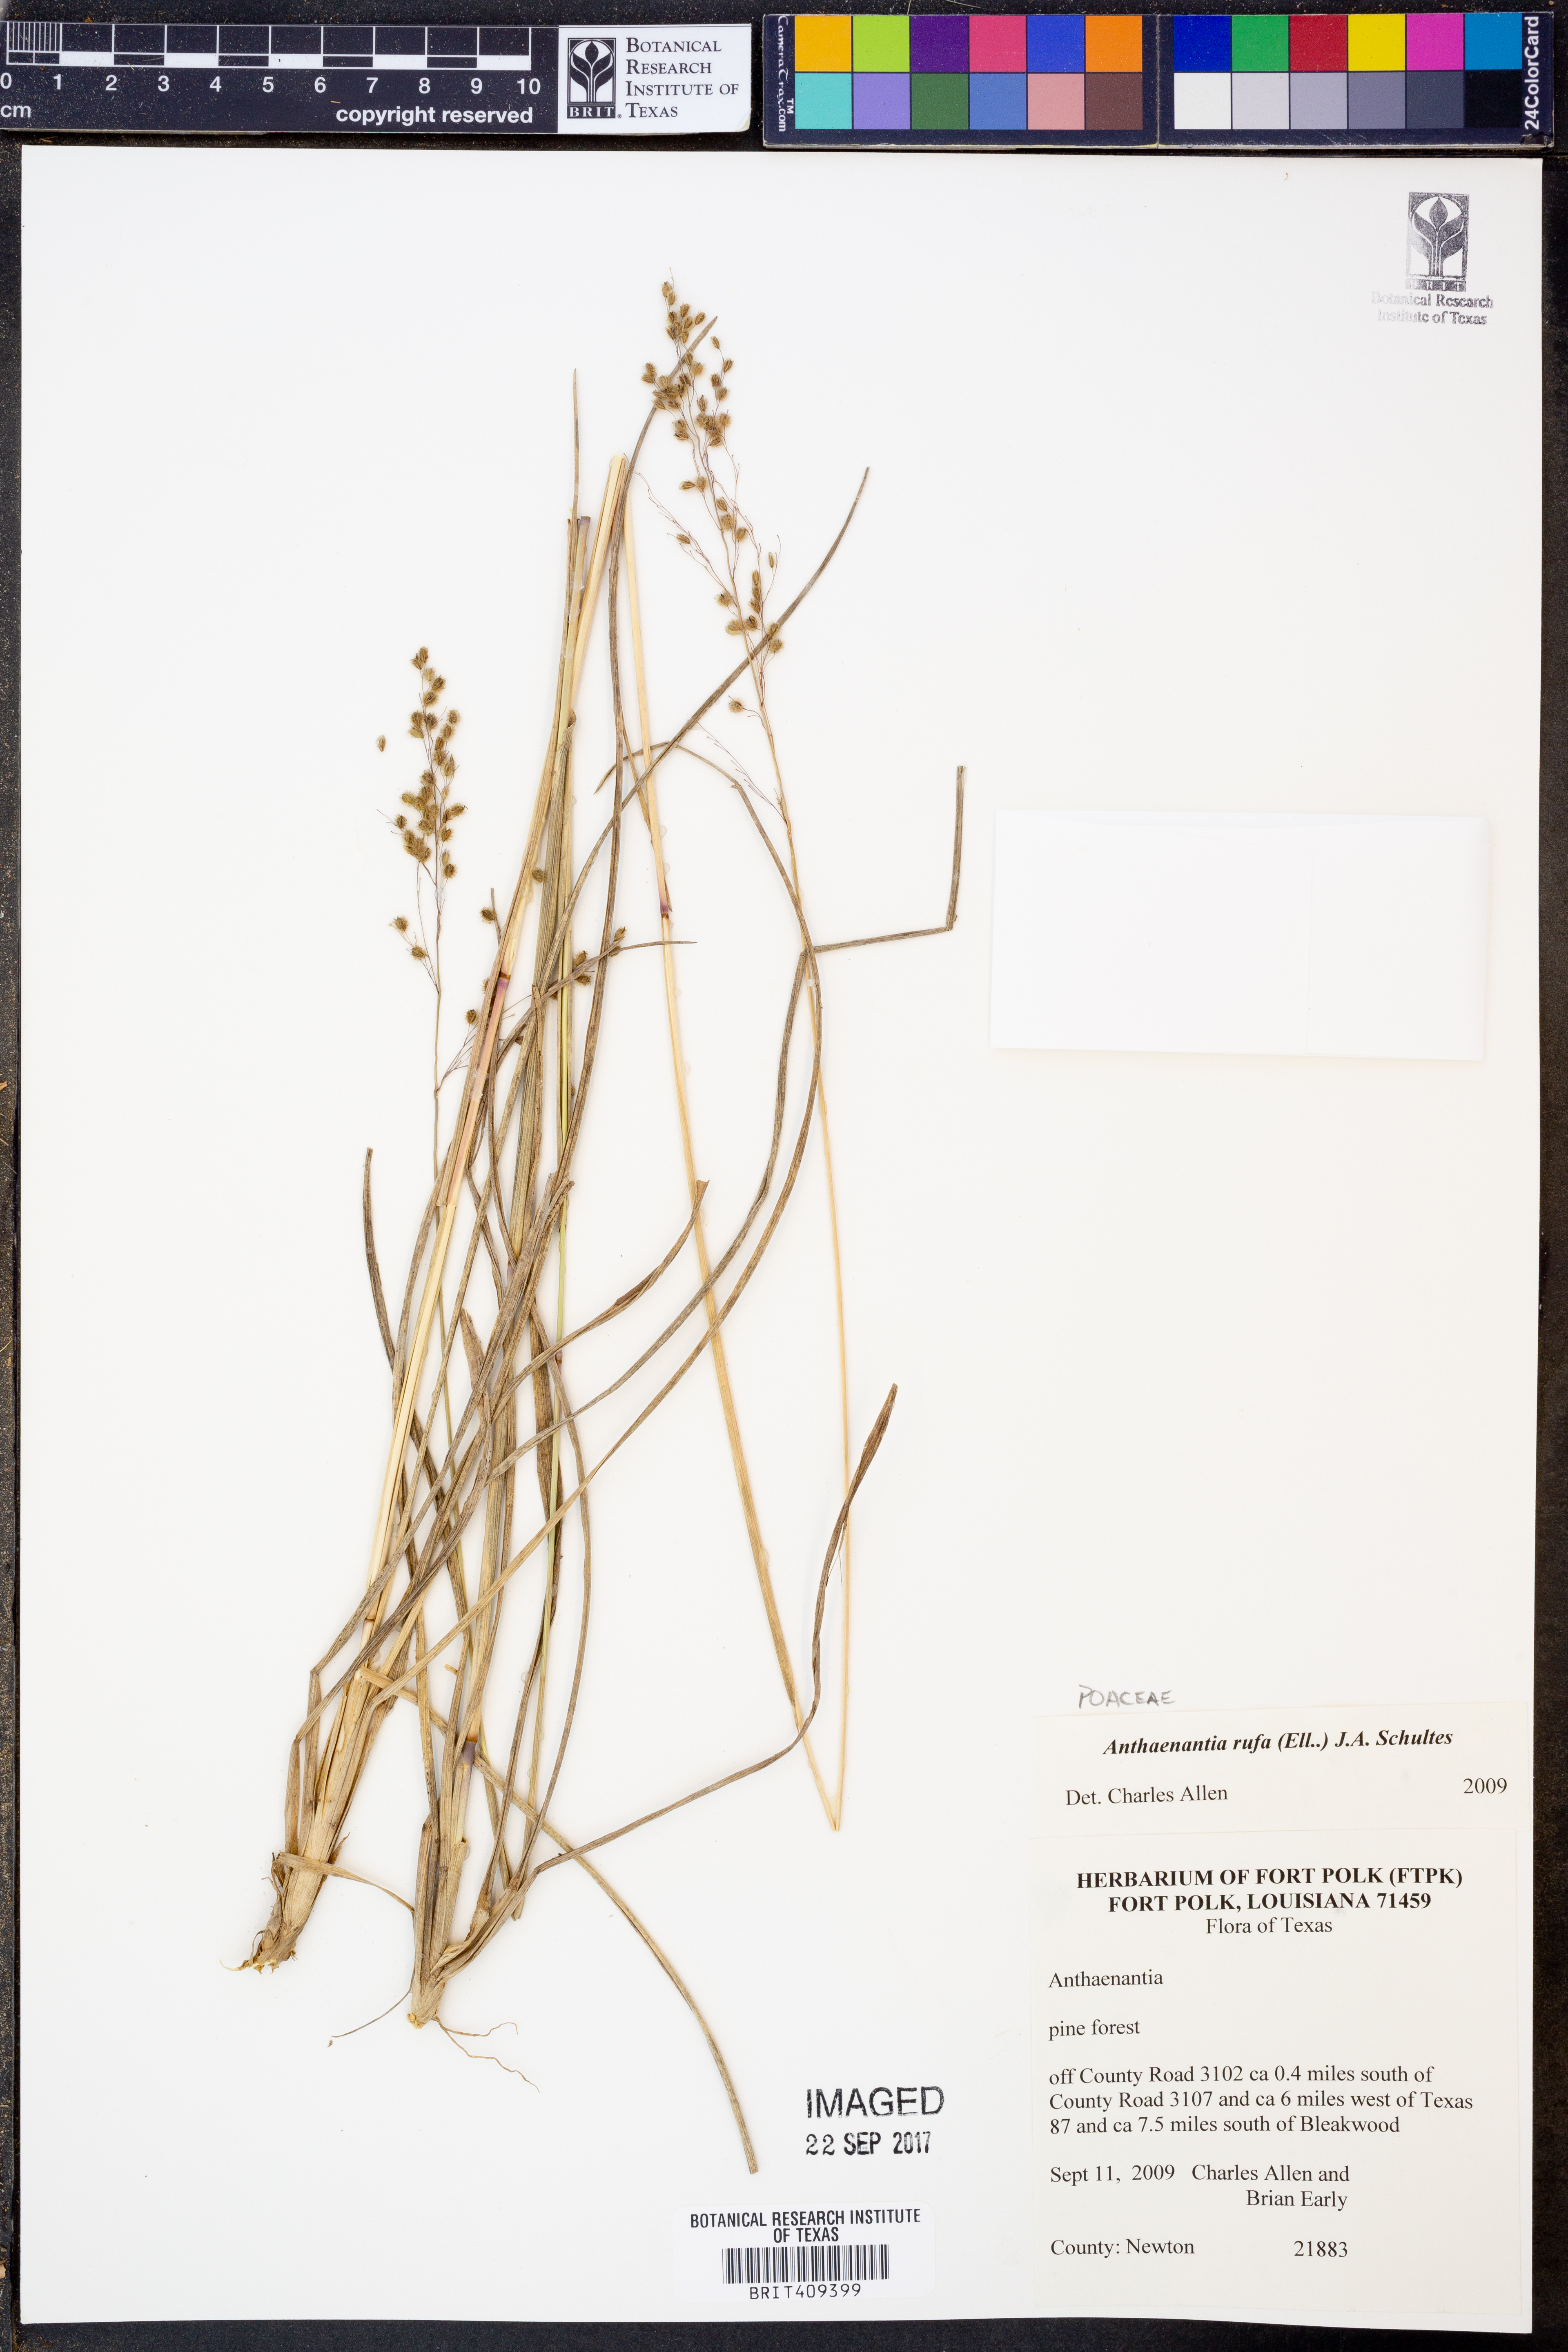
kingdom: Plantae
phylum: Tracheophyta
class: Liliopsida
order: Poales
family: Poaceae
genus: Anthenantia
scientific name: Anthenantia rufa
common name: Purple silkyscale
